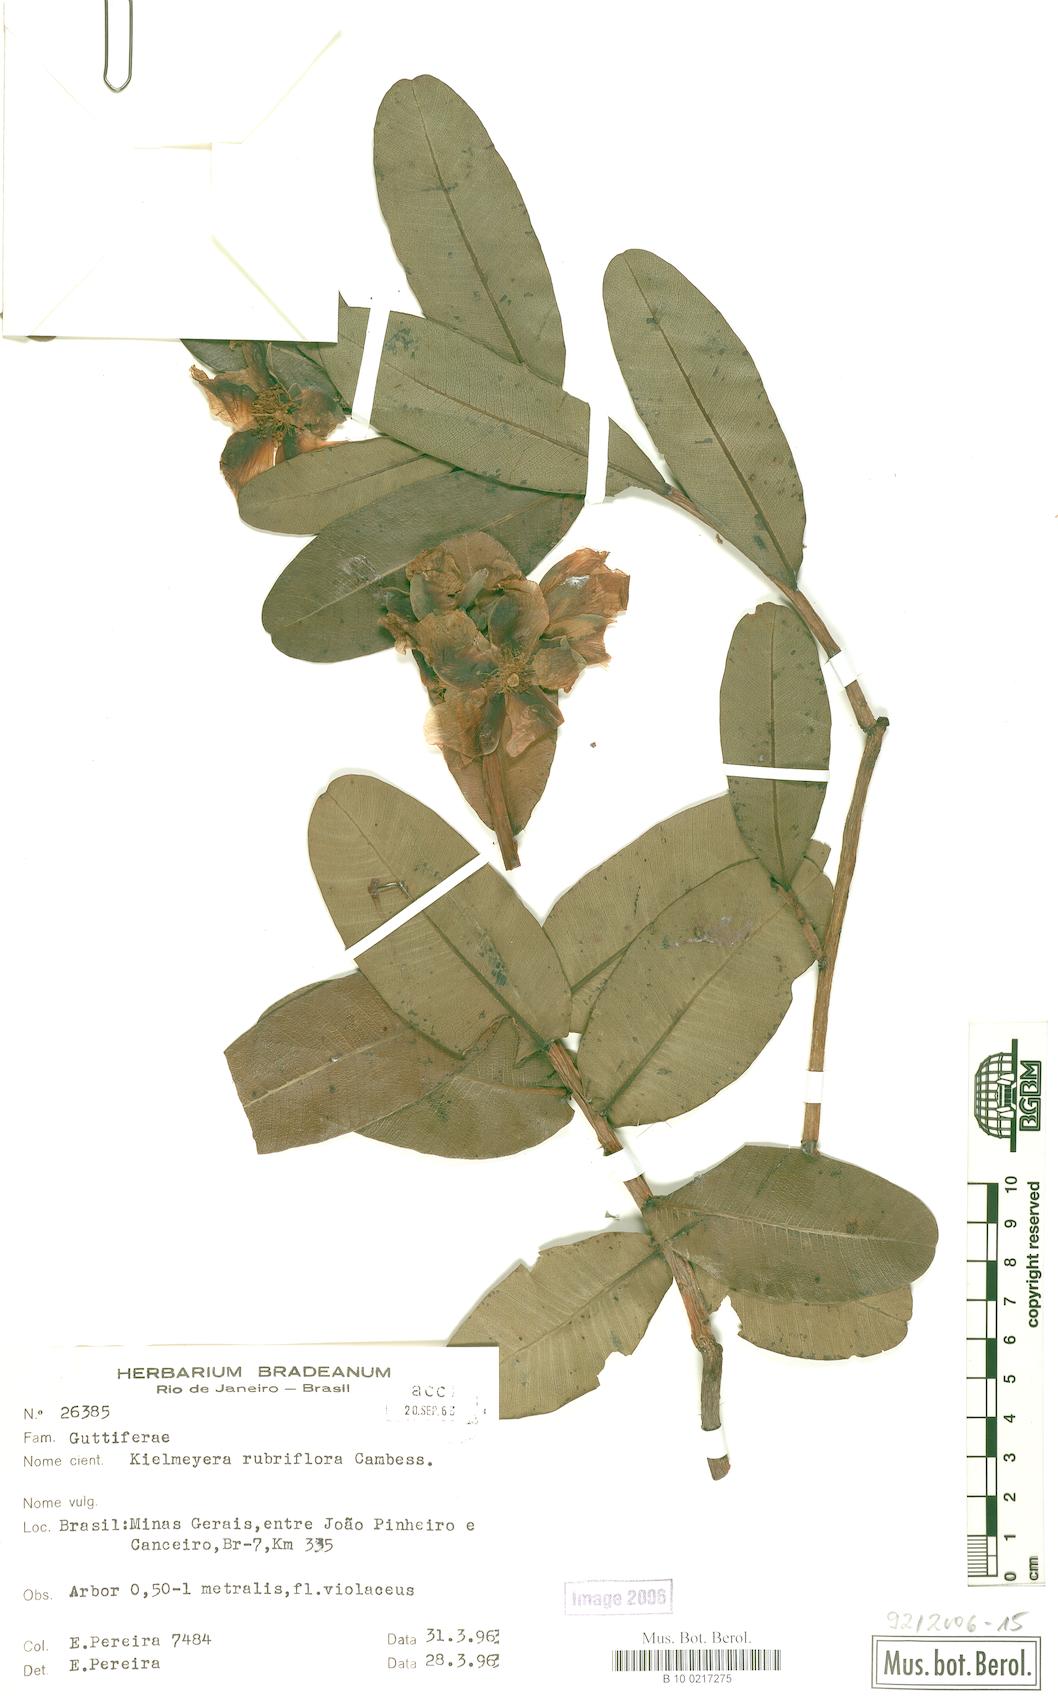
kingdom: Plantae
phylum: Tracheophyta
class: Magnoliopsida
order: Malpighiales
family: Calophyllaceae
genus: Kielmeyera
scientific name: Kielmeyera rubriflora
